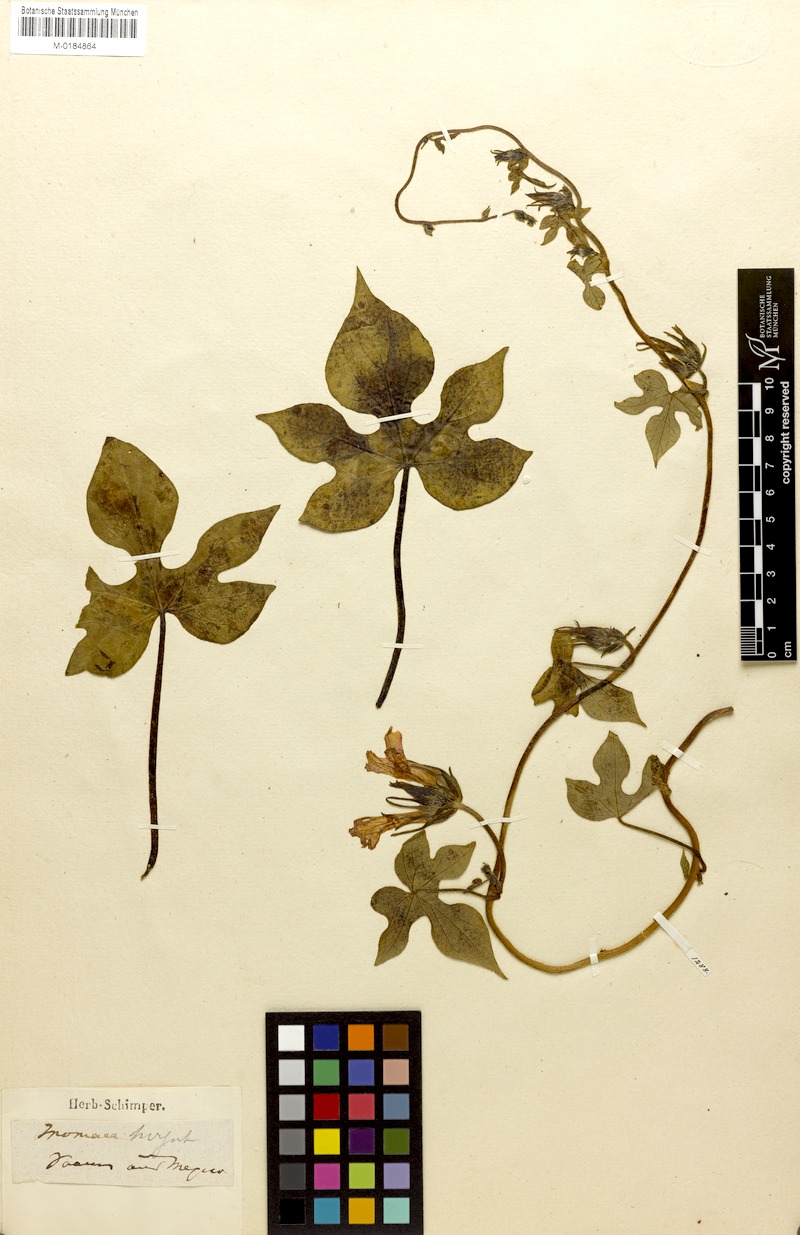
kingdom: Plantae
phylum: Tracheophyta
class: Magnoliopsida
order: Solanales
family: Convolvulaceae
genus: Ipomoea
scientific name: Ipomoea hederacea
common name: Ivy-leaved morning-glory
